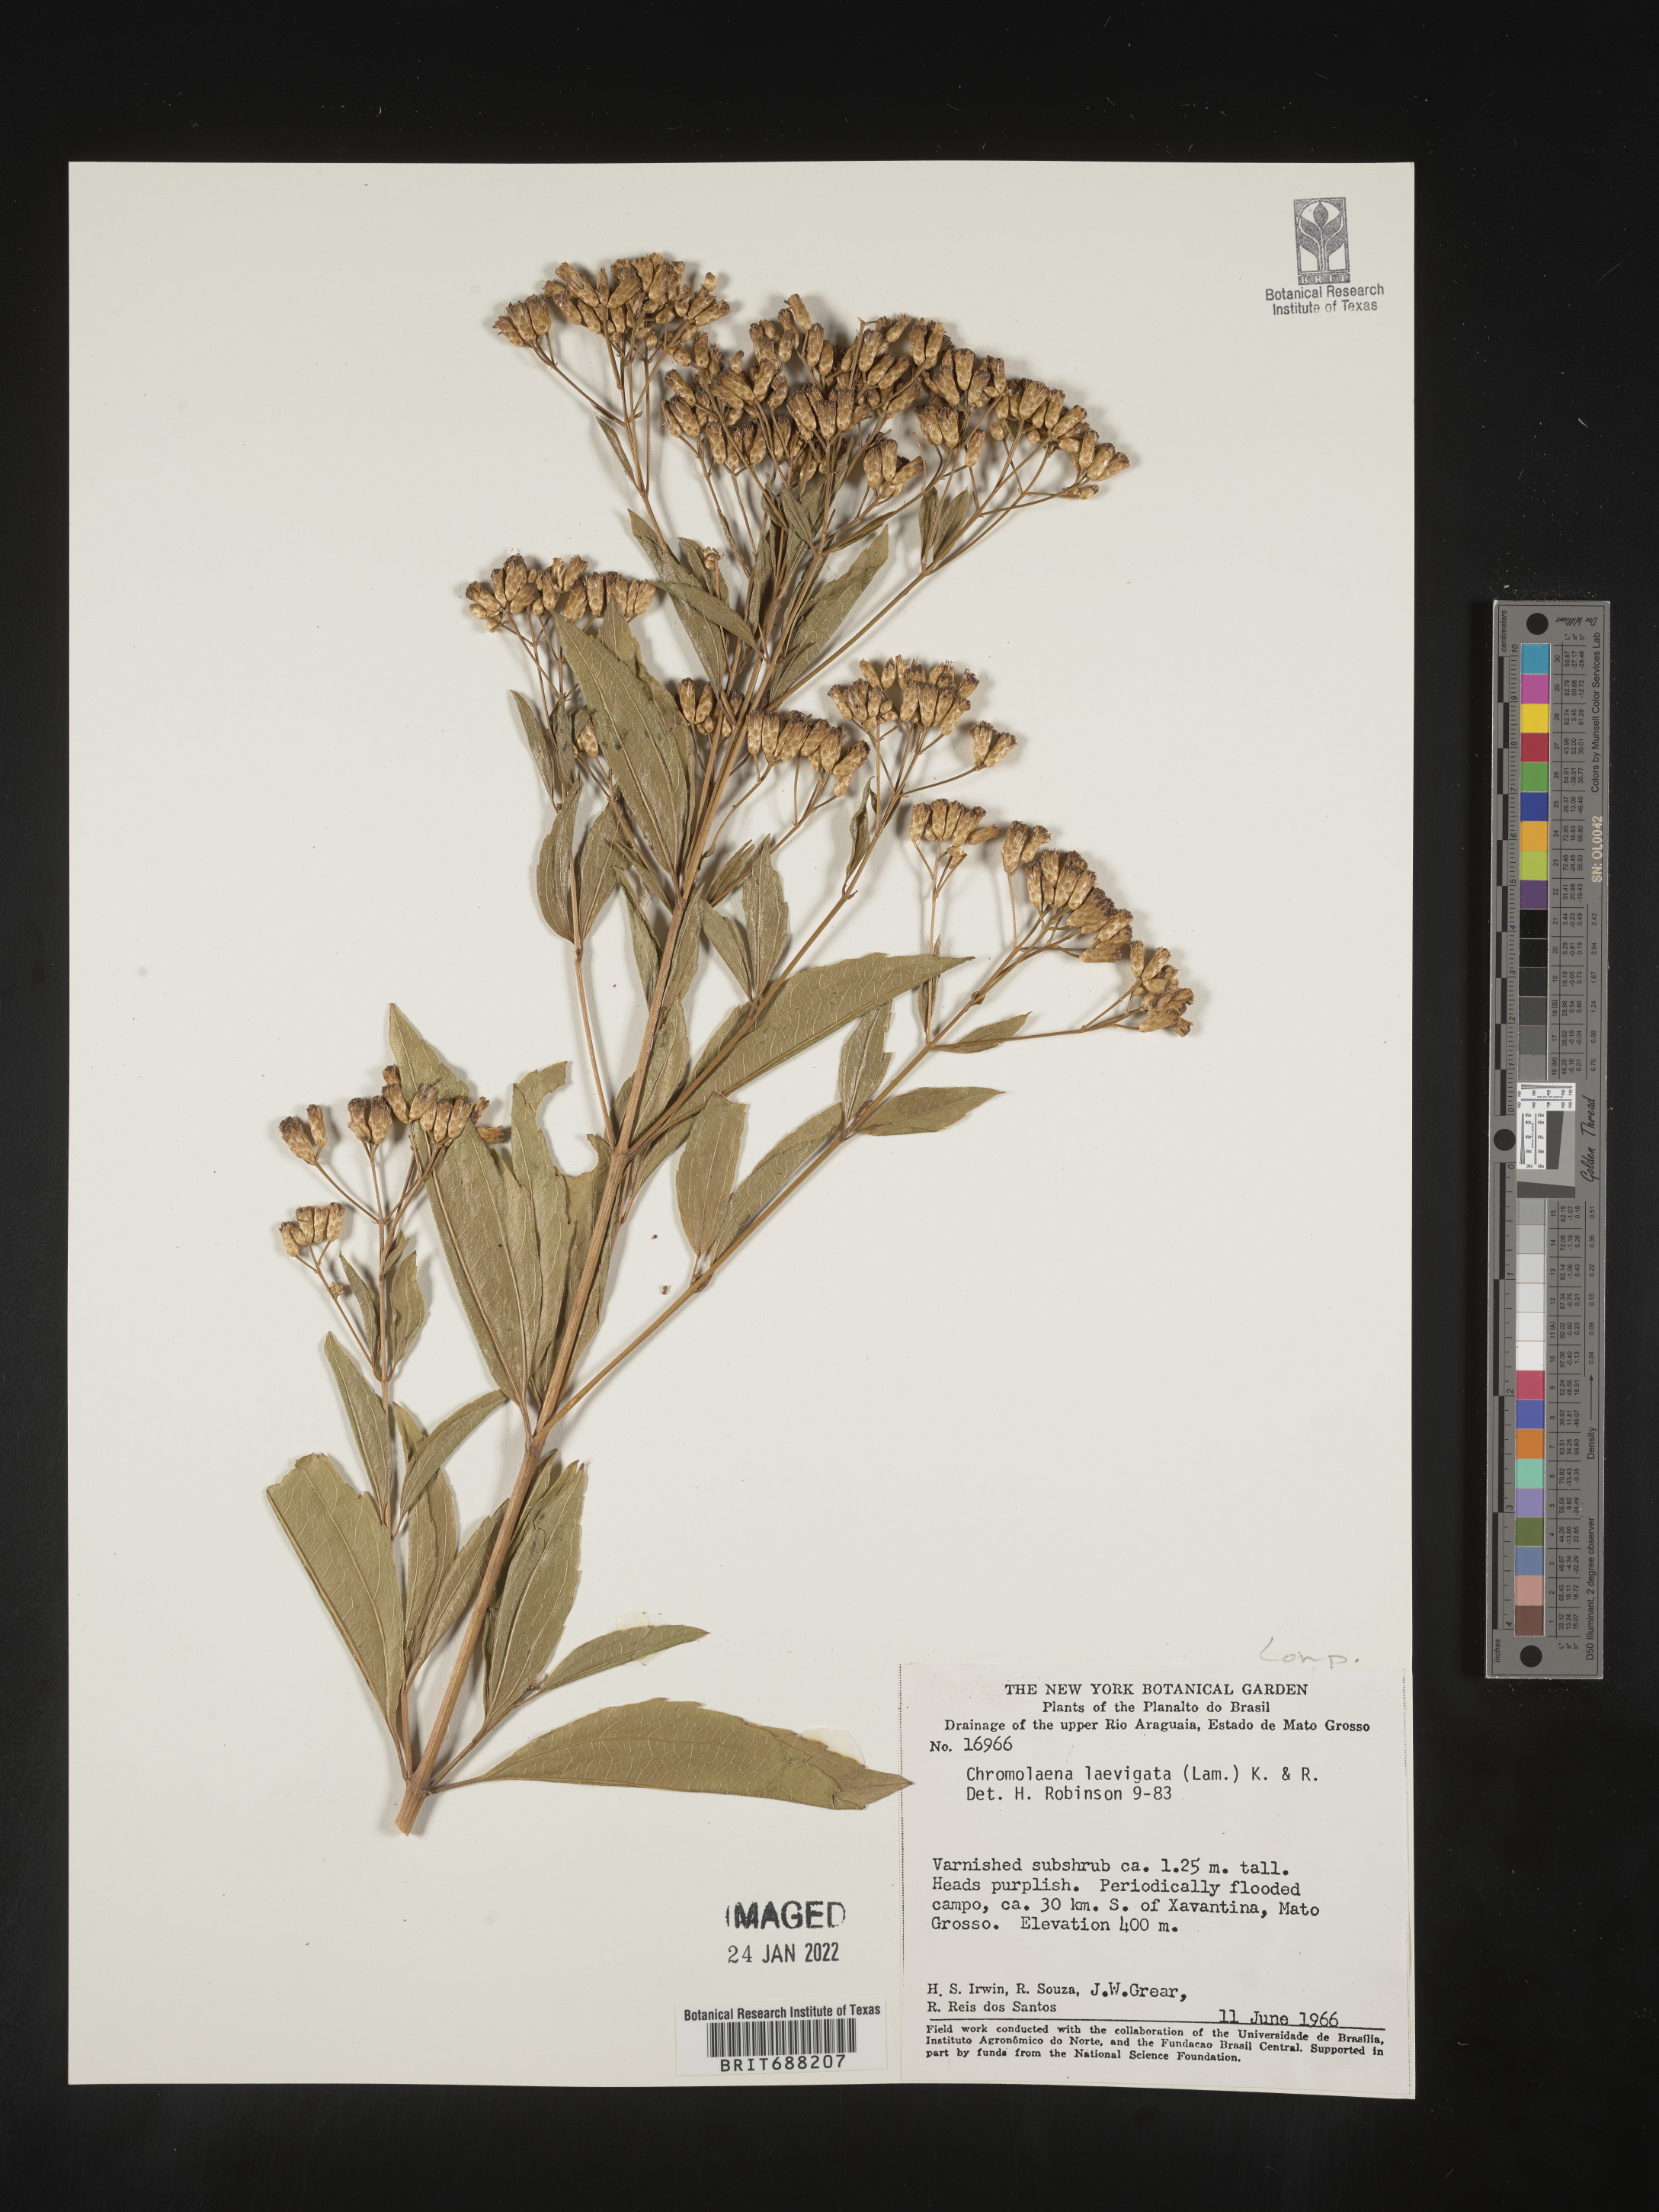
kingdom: Plantae
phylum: Tracheophyta
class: Magnoliopsida
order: Asterales
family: Asteraceae
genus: Chromolaena
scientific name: Chromolaena
